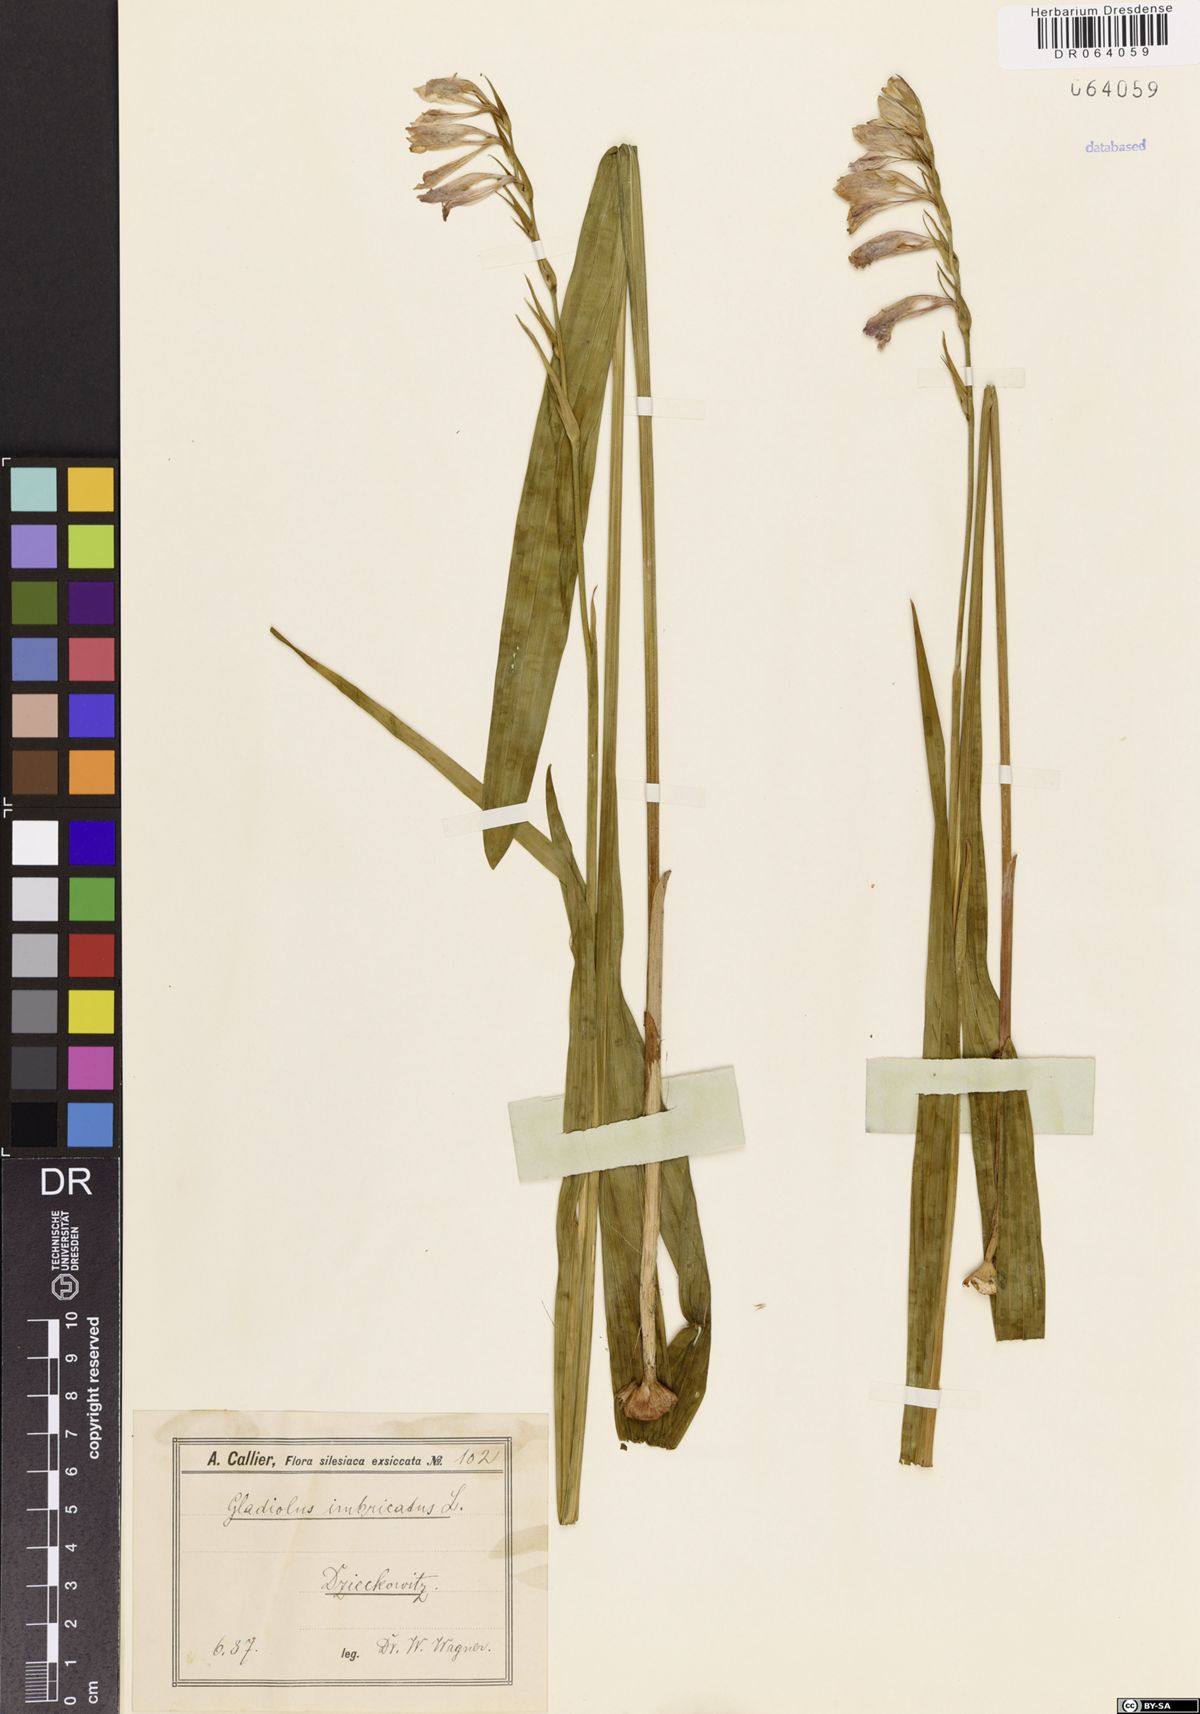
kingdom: Plantae
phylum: Tracheophyta
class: Liliopsida
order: Asparagales
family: Iridaceae
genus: Gladiolus
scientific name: Gladiolus imbricatus
